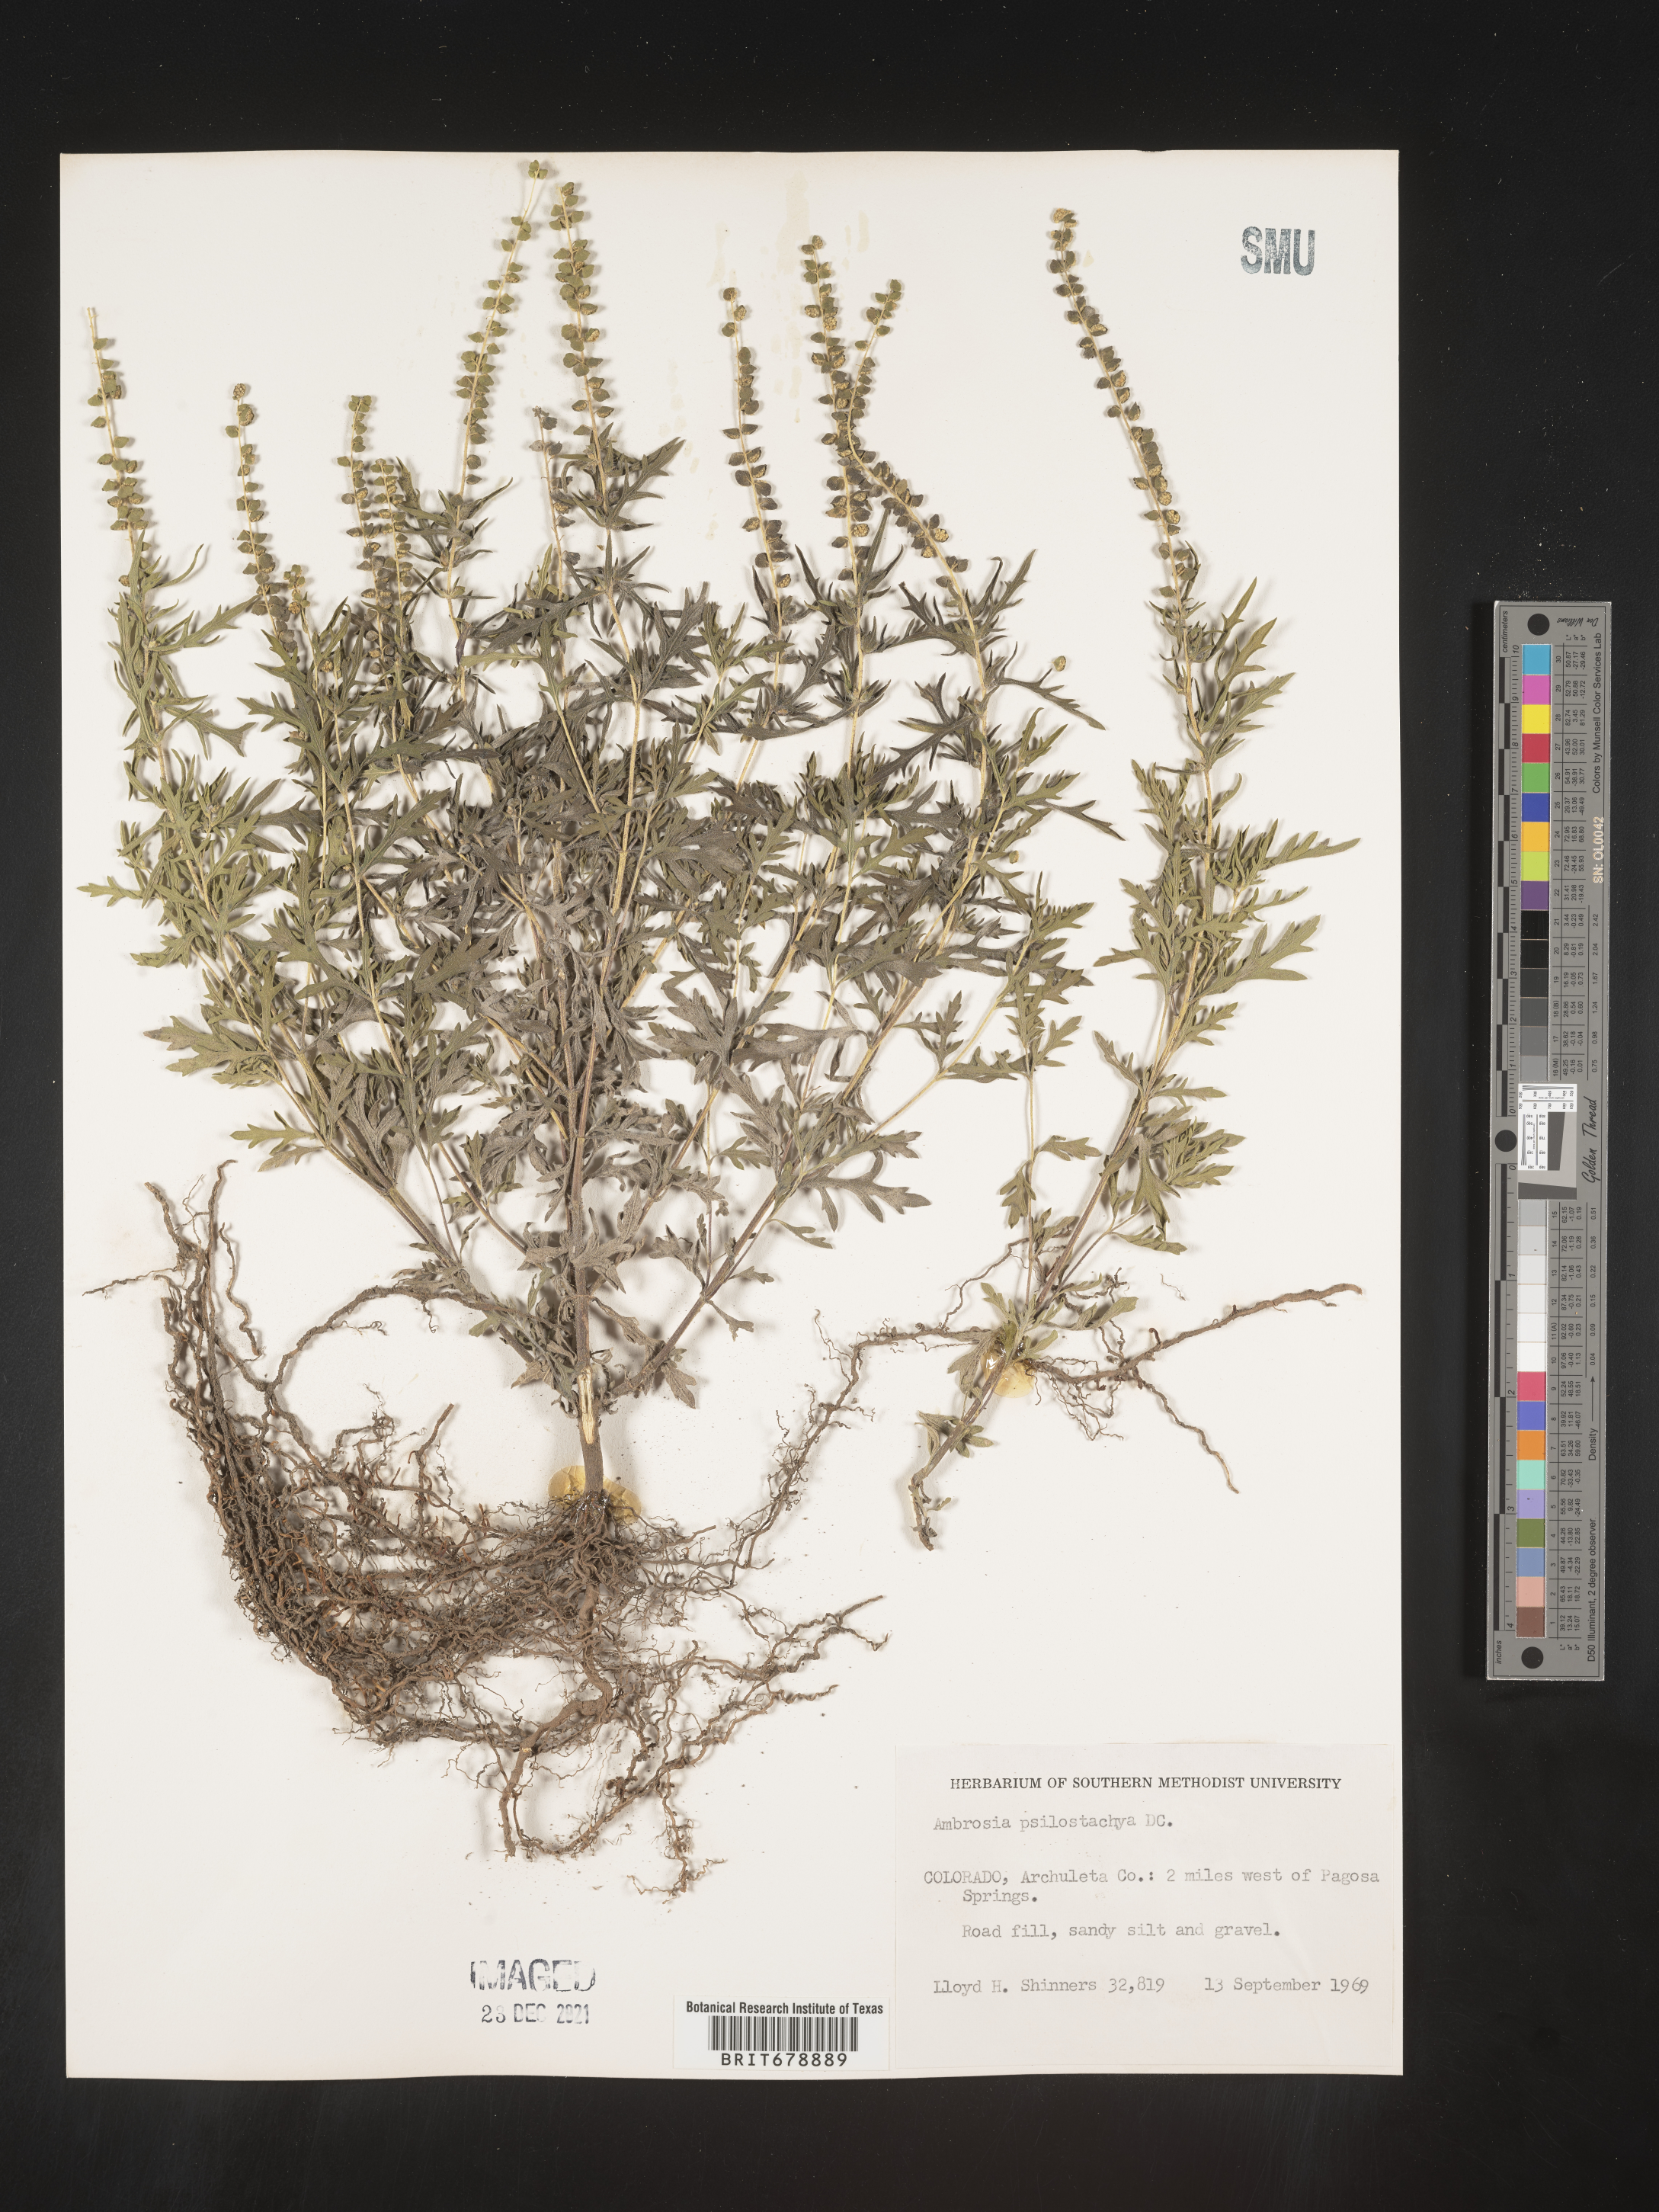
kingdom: Plantae
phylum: Tracheophyta
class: Magnoliopsida
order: Asterales
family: Asteraceae
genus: Ambrosia
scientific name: Ambrosia psilostachya
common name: Perennial ragweed
